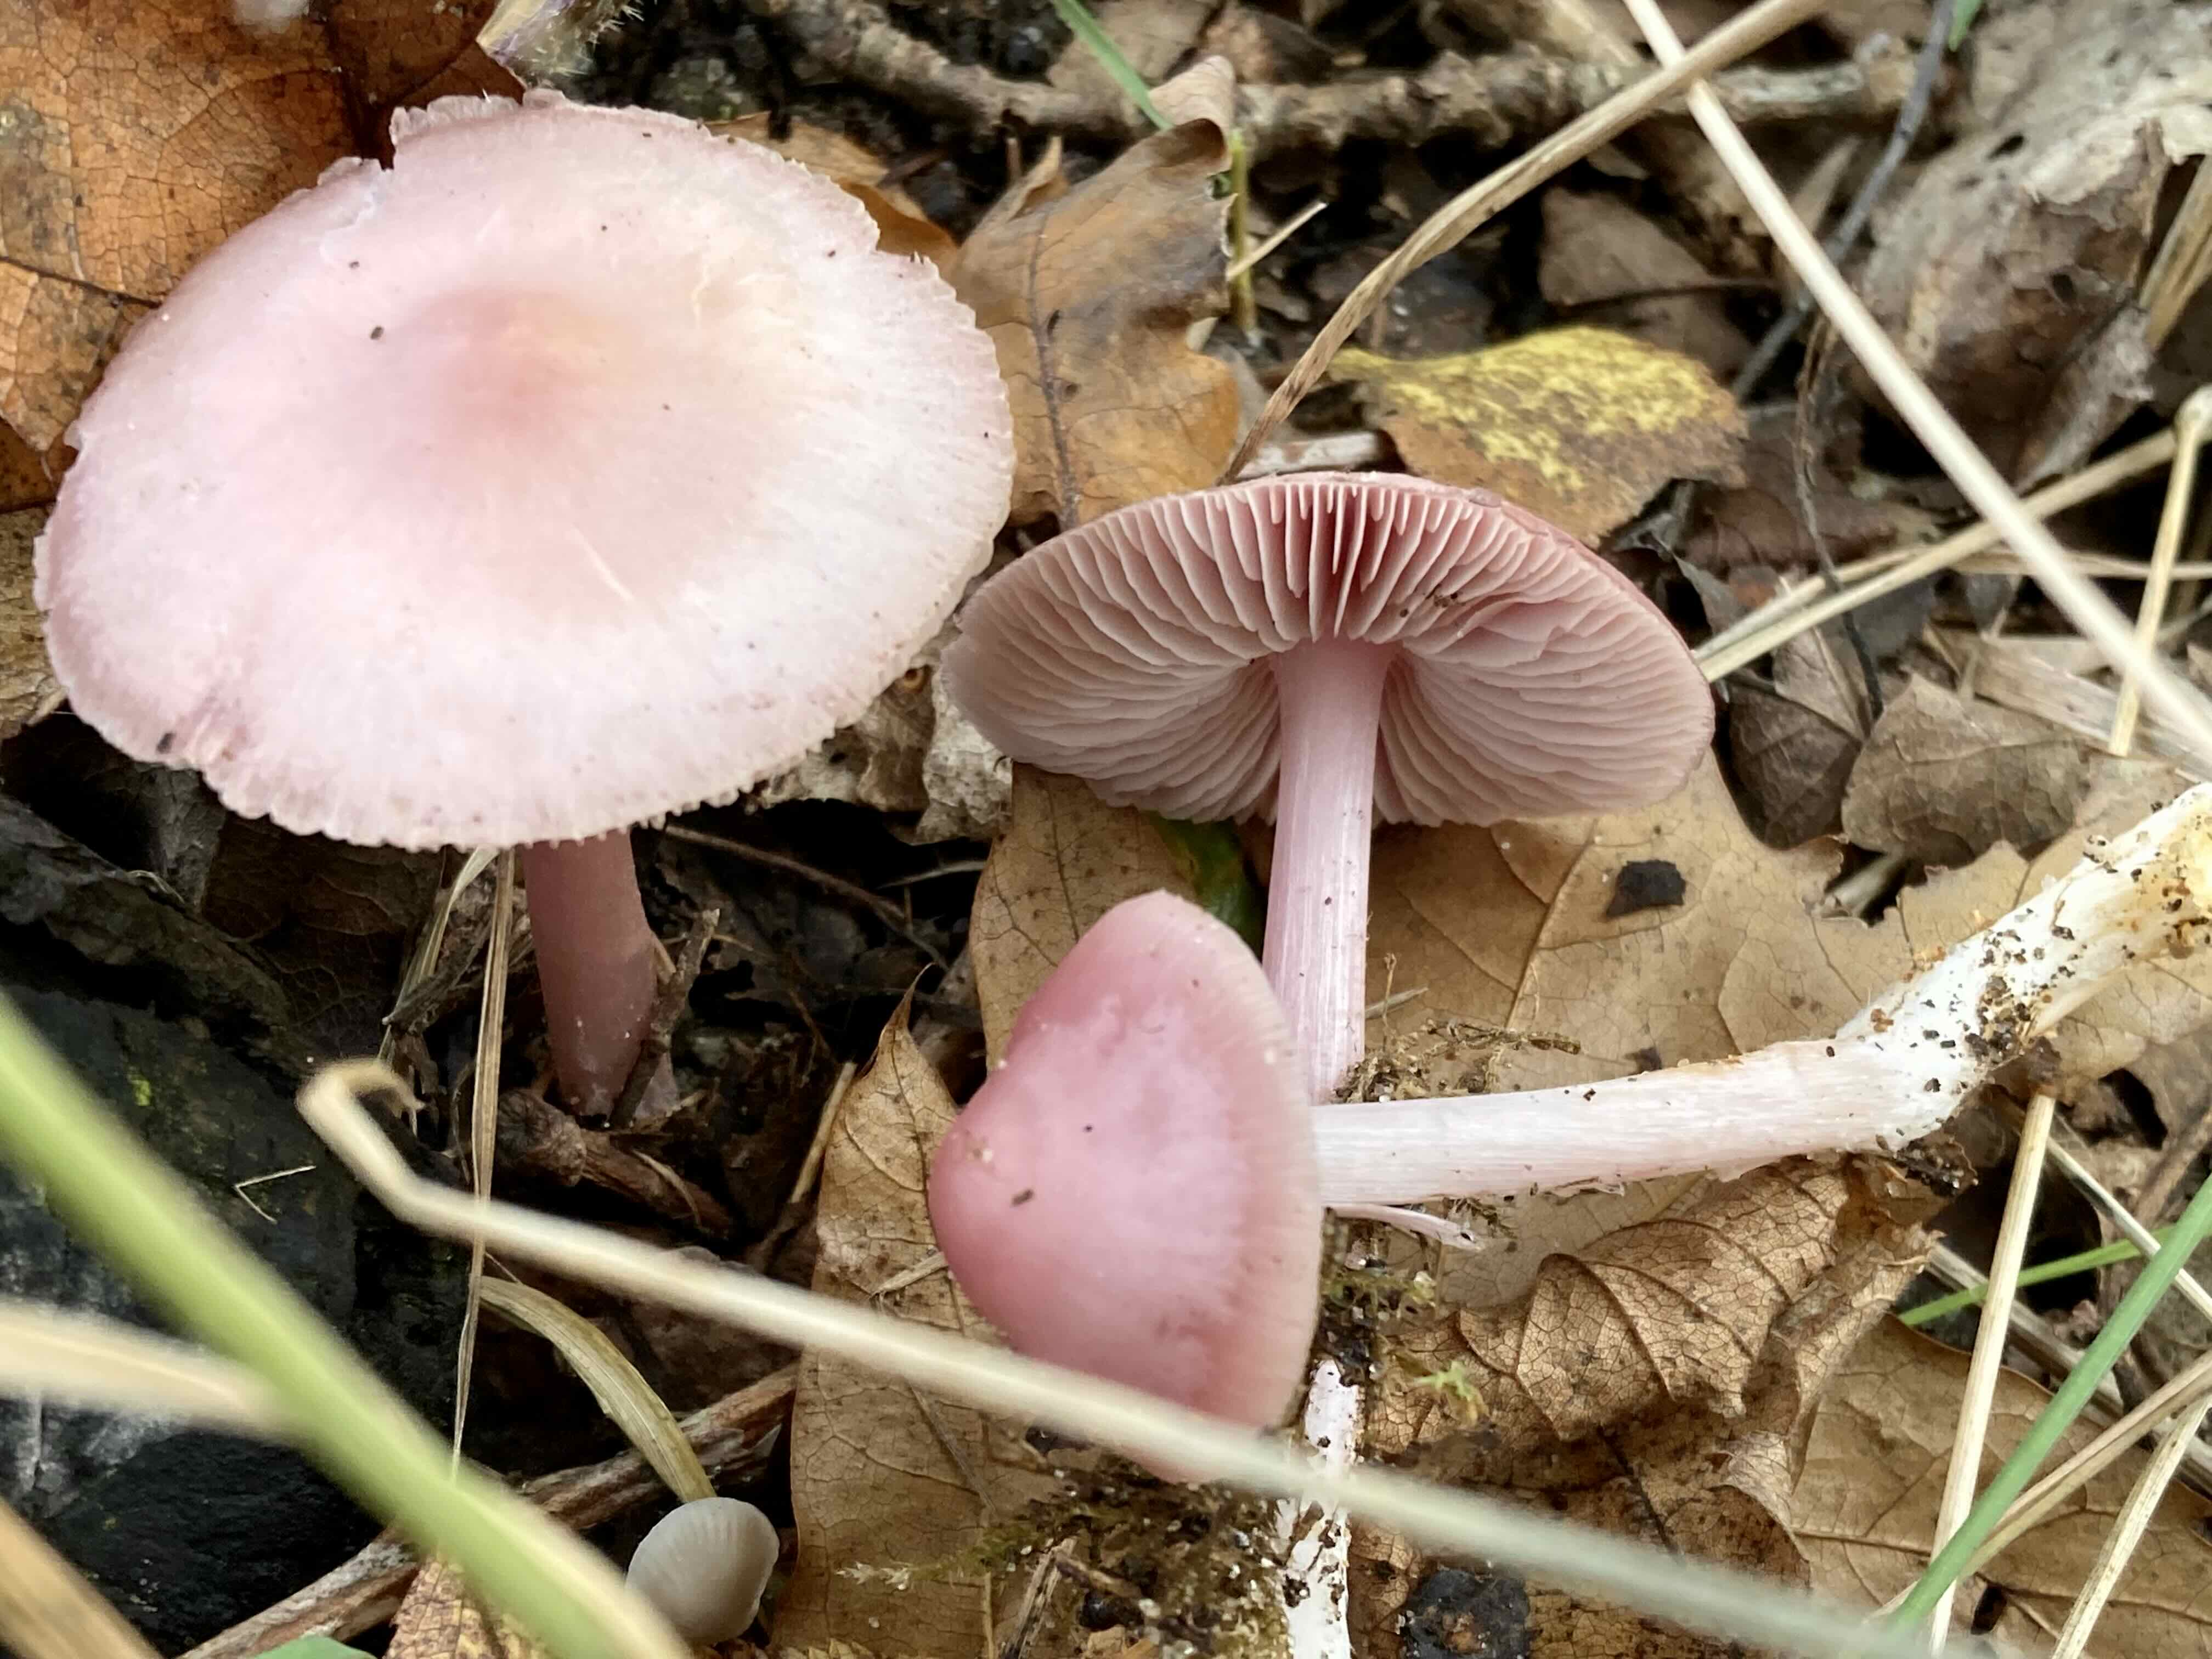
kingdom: Fungi
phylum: Basidiomycota
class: Agaricomycetes
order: Agaricales
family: Mycenaceae
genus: Mycena
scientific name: Mycena rosea
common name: rosa huesvamp
